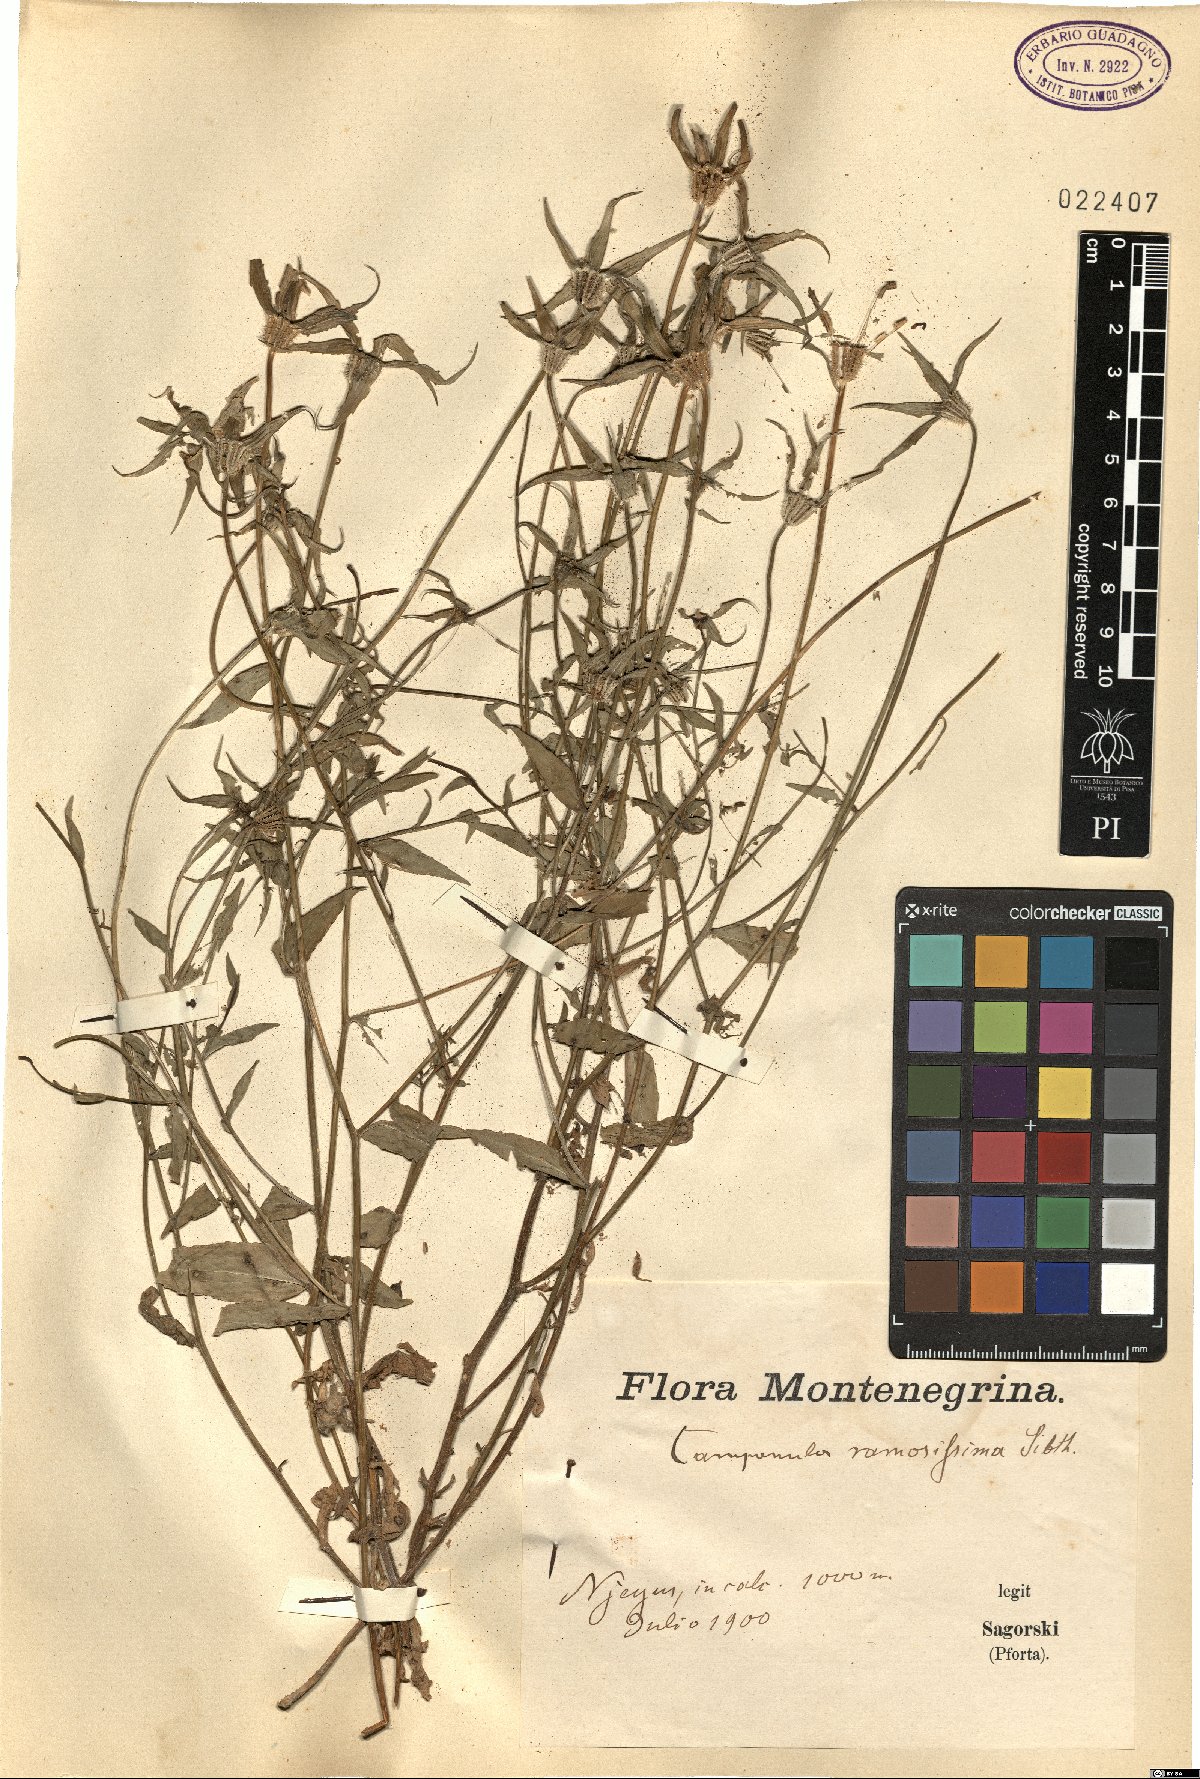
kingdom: Plantae
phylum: Tracheophyta
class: Magnoliopsida
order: Asterales
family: Campanulaceae
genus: Campanula
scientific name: Campanula ramosissima
